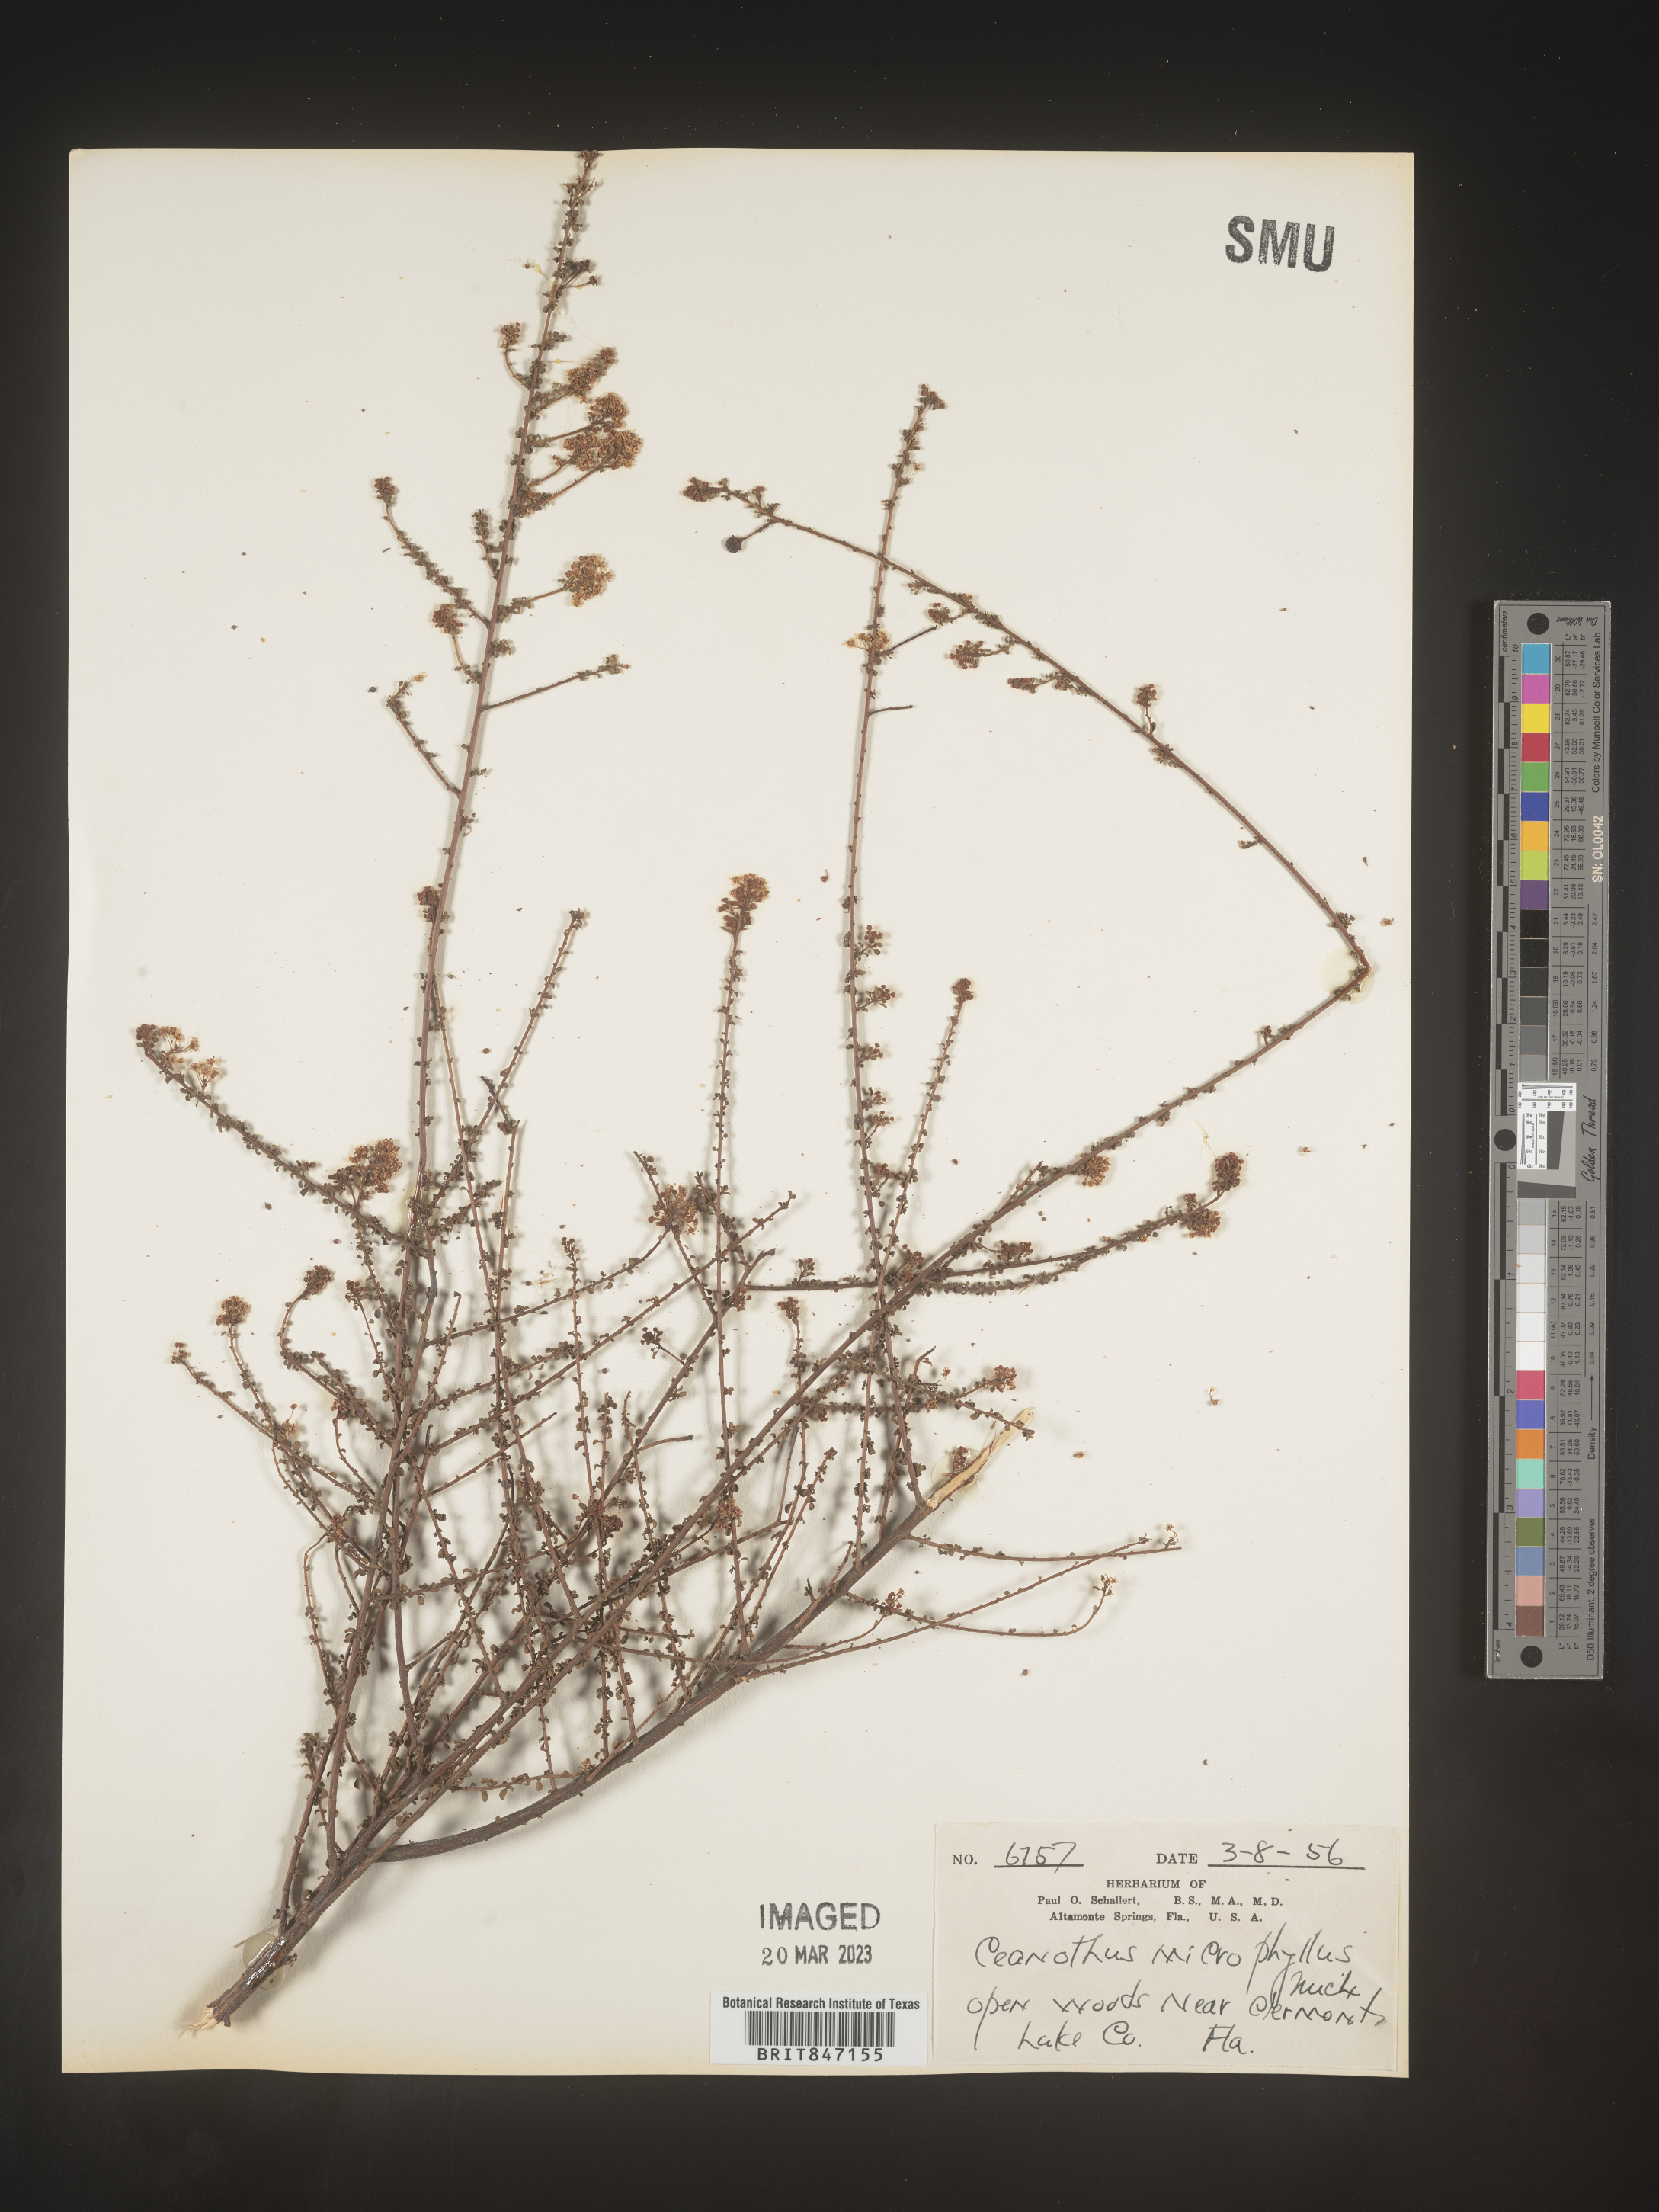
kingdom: Plantae
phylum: Tracheophyta
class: Magnoliopsida
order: Rosales
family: Rhamnaceae
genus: Ceanothus
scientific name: Ceanothus
